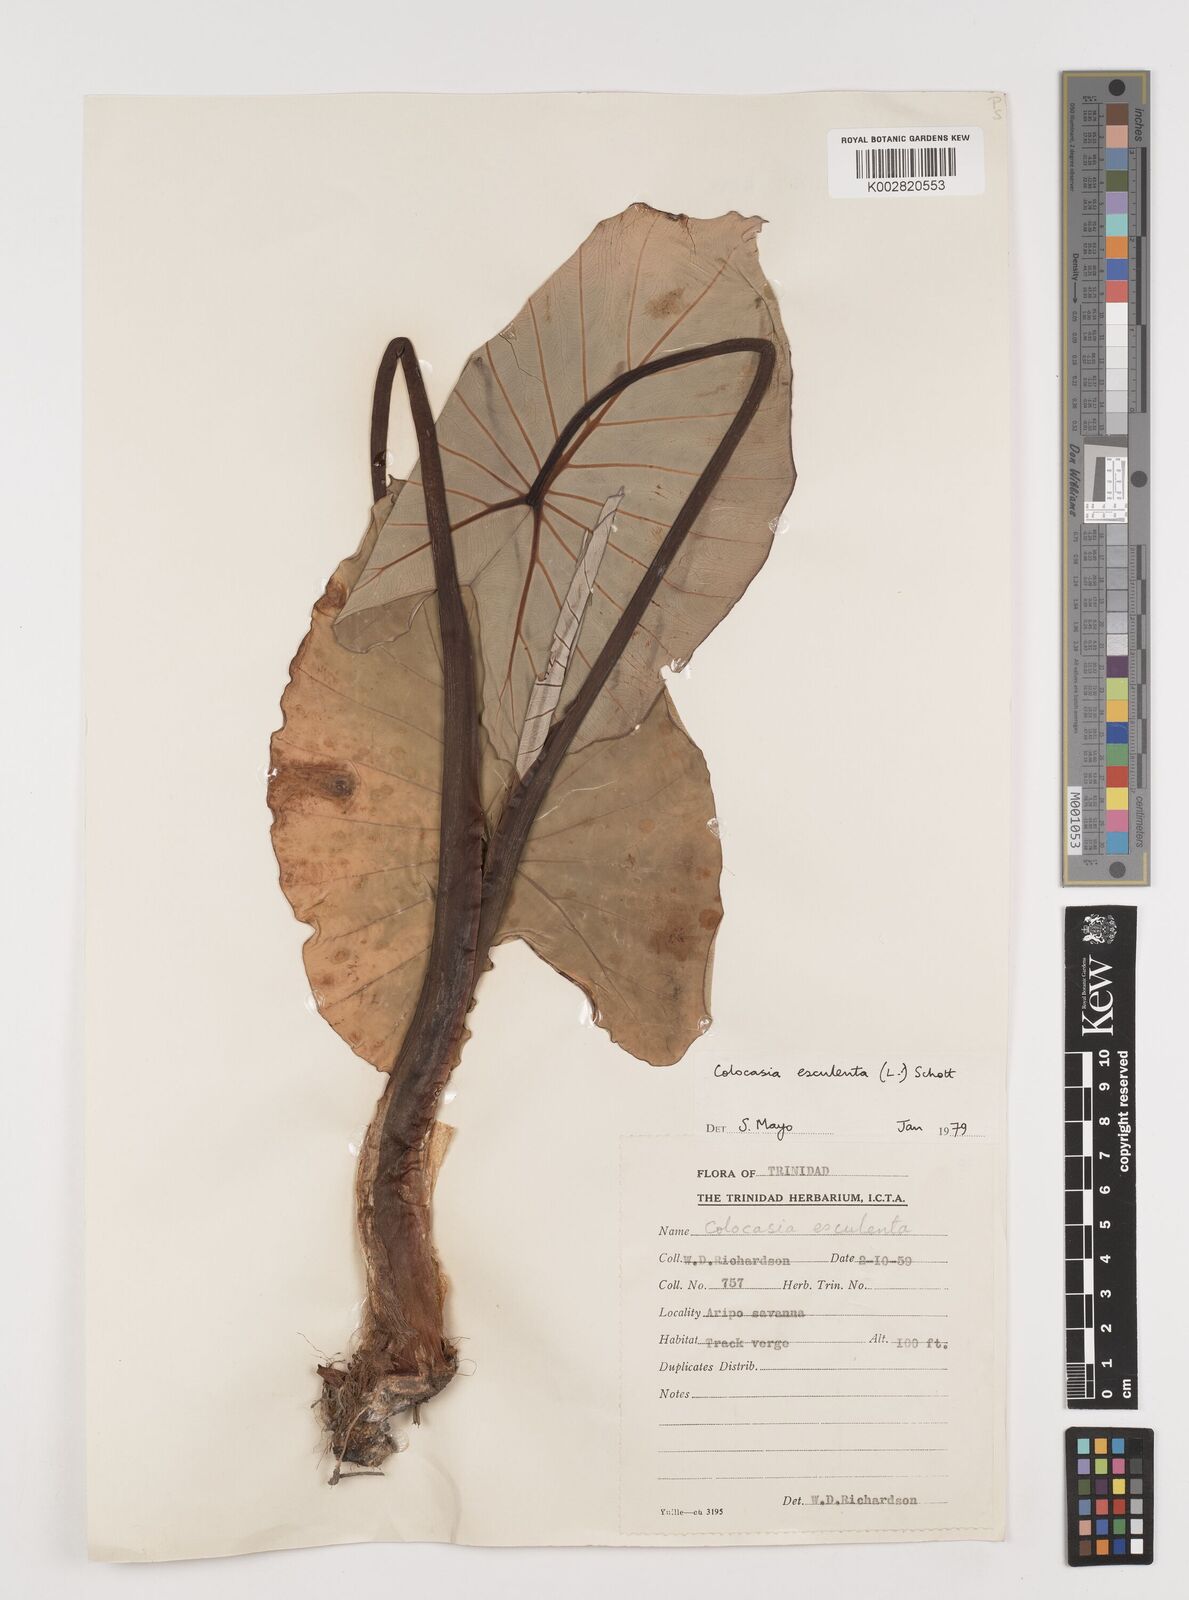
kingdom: Plantae
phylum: Tracheophyta
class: Liliopsida
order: Alismatales
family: Araceae
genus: Colocasia
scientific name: Colocasia esculenta
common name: Taro
